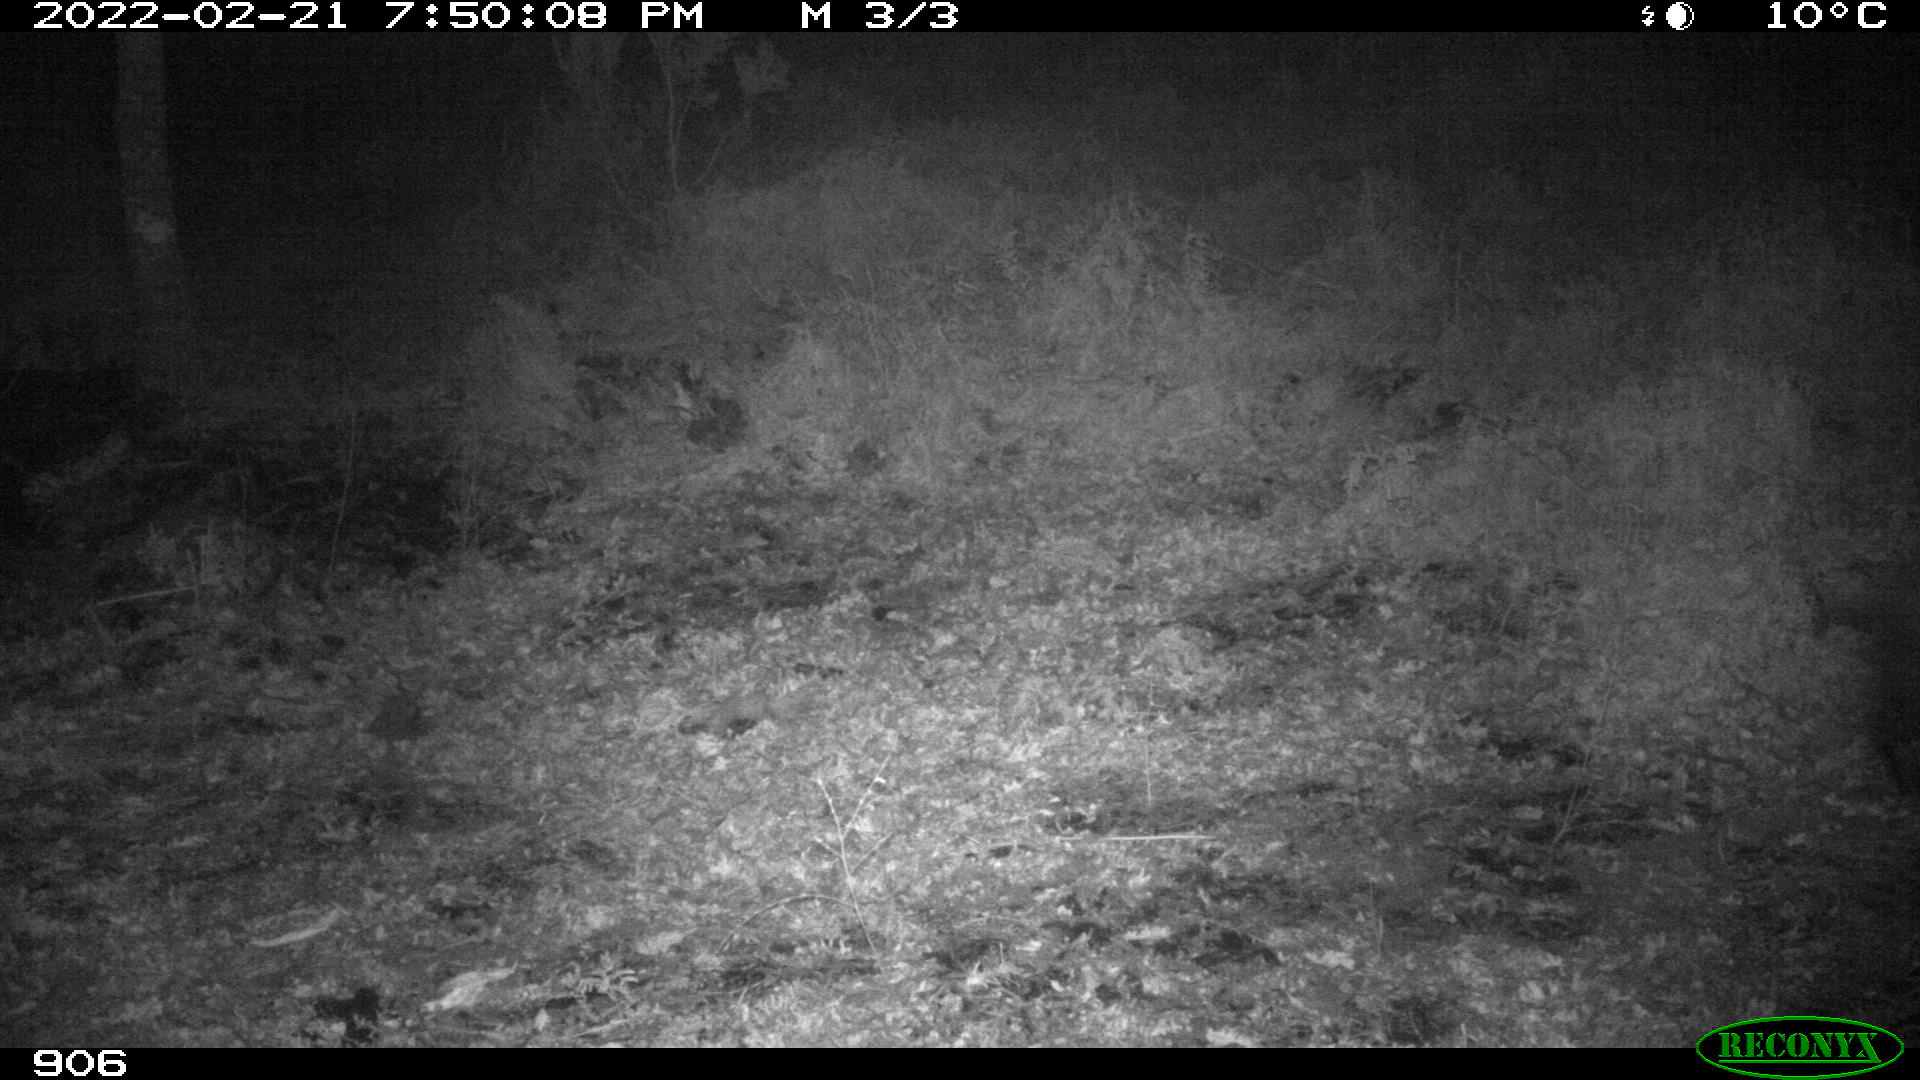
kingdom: Animalia
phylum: Chordata
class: Mammalia
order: Artiodactyla
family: Suidae
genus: Sus
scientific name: Sus scrofa
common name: Wild boar
